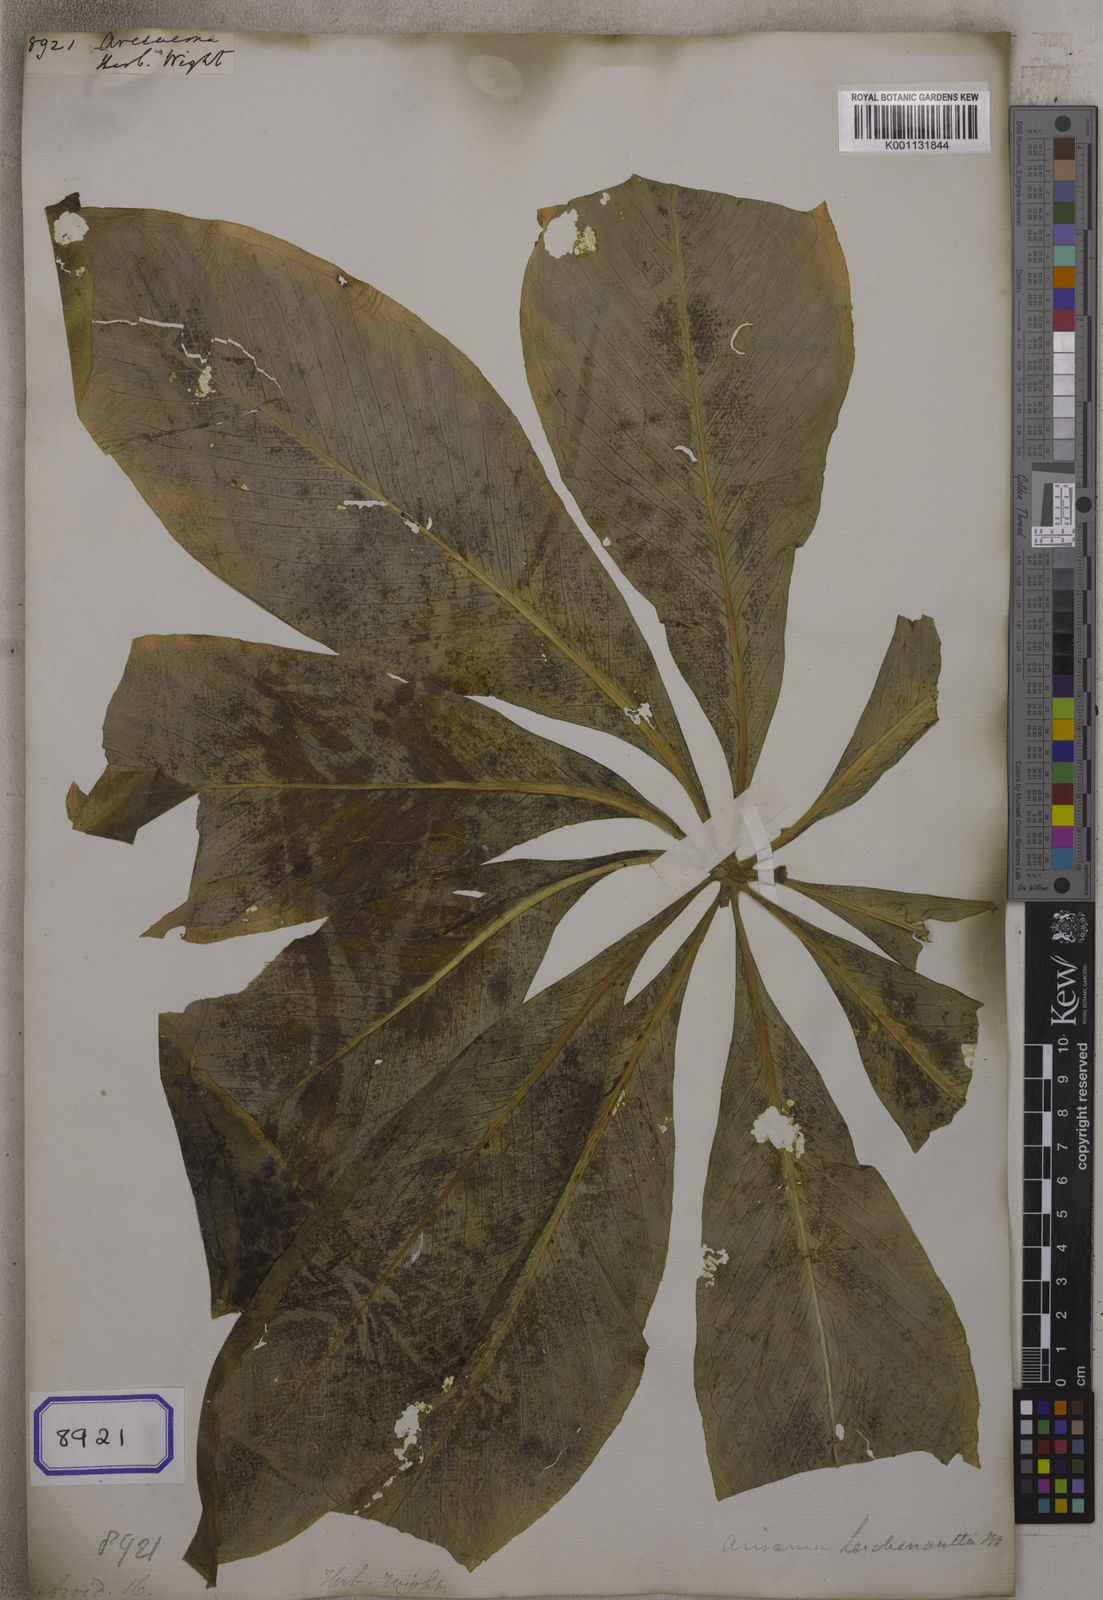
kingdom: Plantae
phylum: Tracheophyta
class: Liliopsida
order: Alismatales
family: Araceae
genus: Arisaema
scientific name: Arisaema
